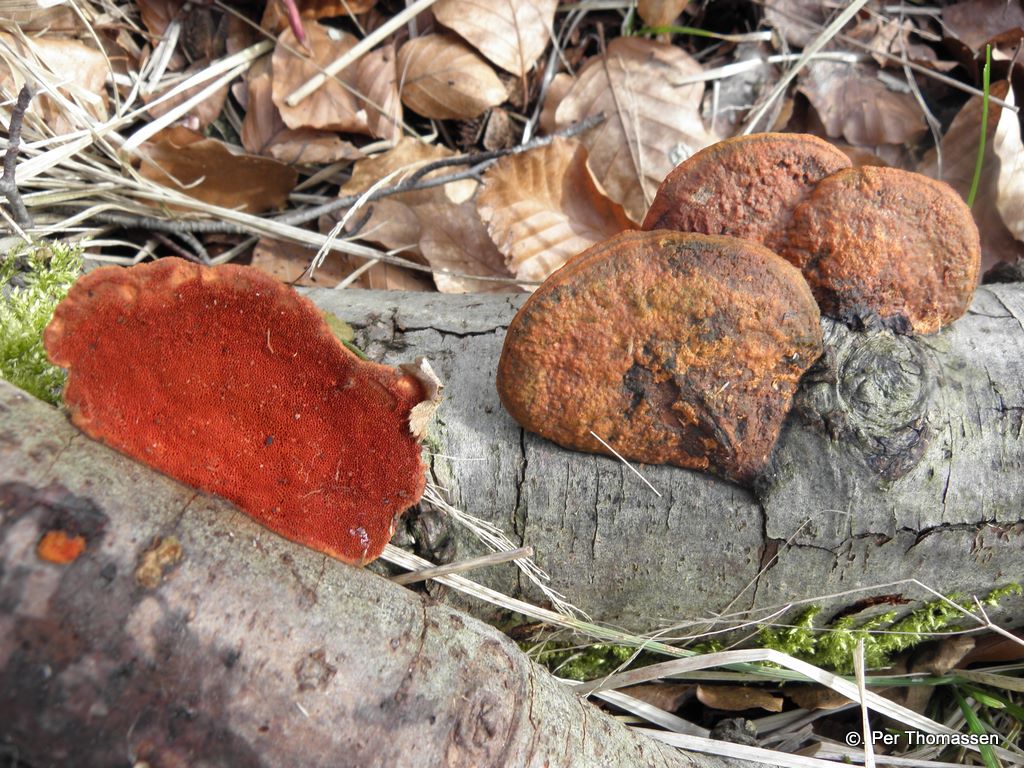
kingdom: Fungi
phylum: Basidiomycota
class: Agaricomycetes
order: Polyporales
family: Polyporaceae
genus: Trametes
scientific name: Trametes cinnabarina
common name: cinnoberporesvamp
